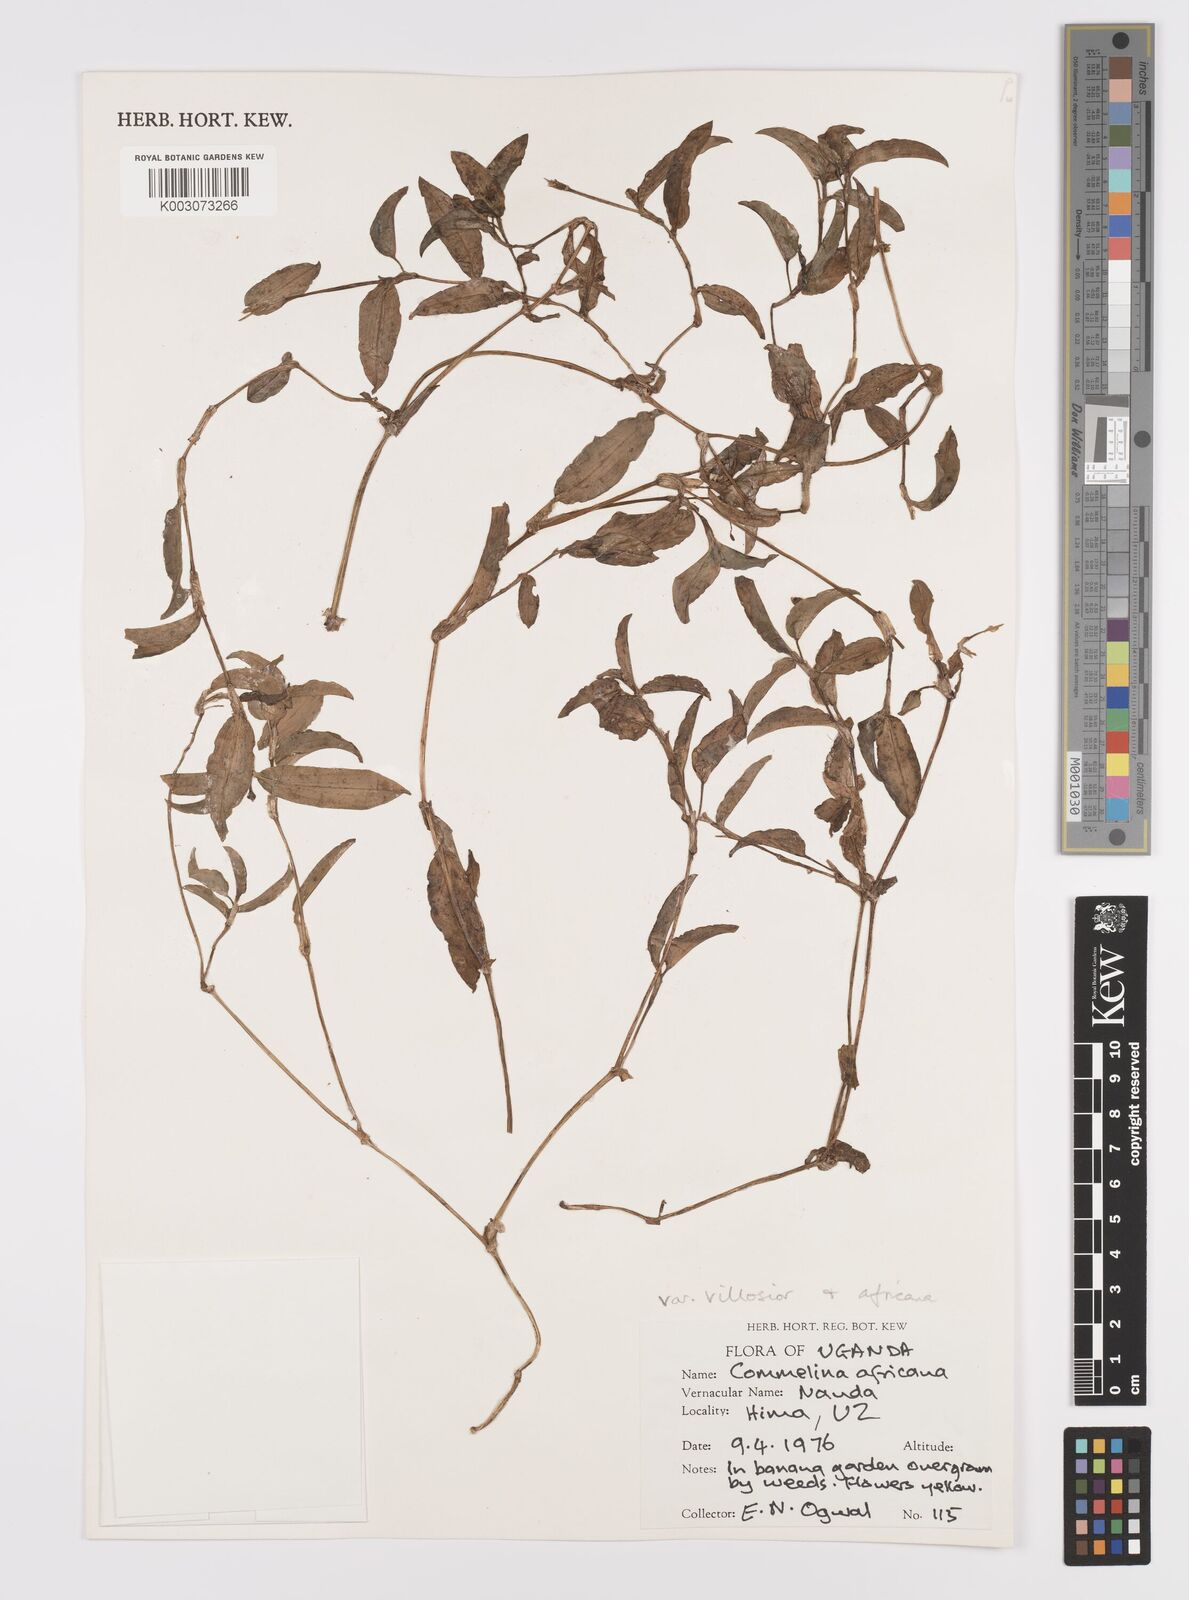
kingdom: Plantae
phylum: Tracheophyta
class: Liliopsida
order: Commelinales
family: Commelinaceae
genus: Commelina
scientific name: Commelina africana
